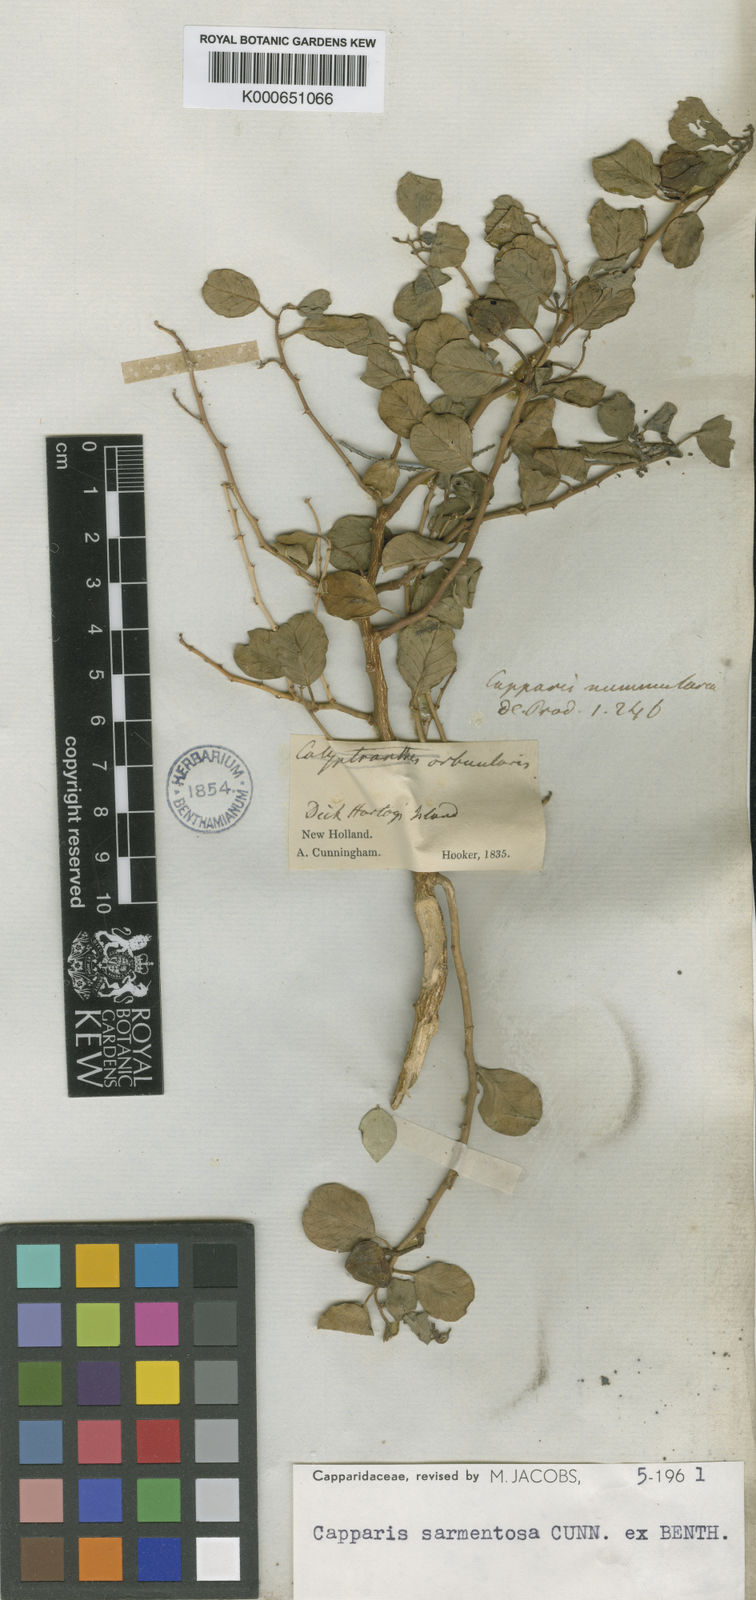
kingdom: Plantae
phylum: Tracheophyta
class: Magnoliopsida
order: Brassicales
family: Capparaceae
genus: Capparis
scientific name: Capparis sarmentosa
